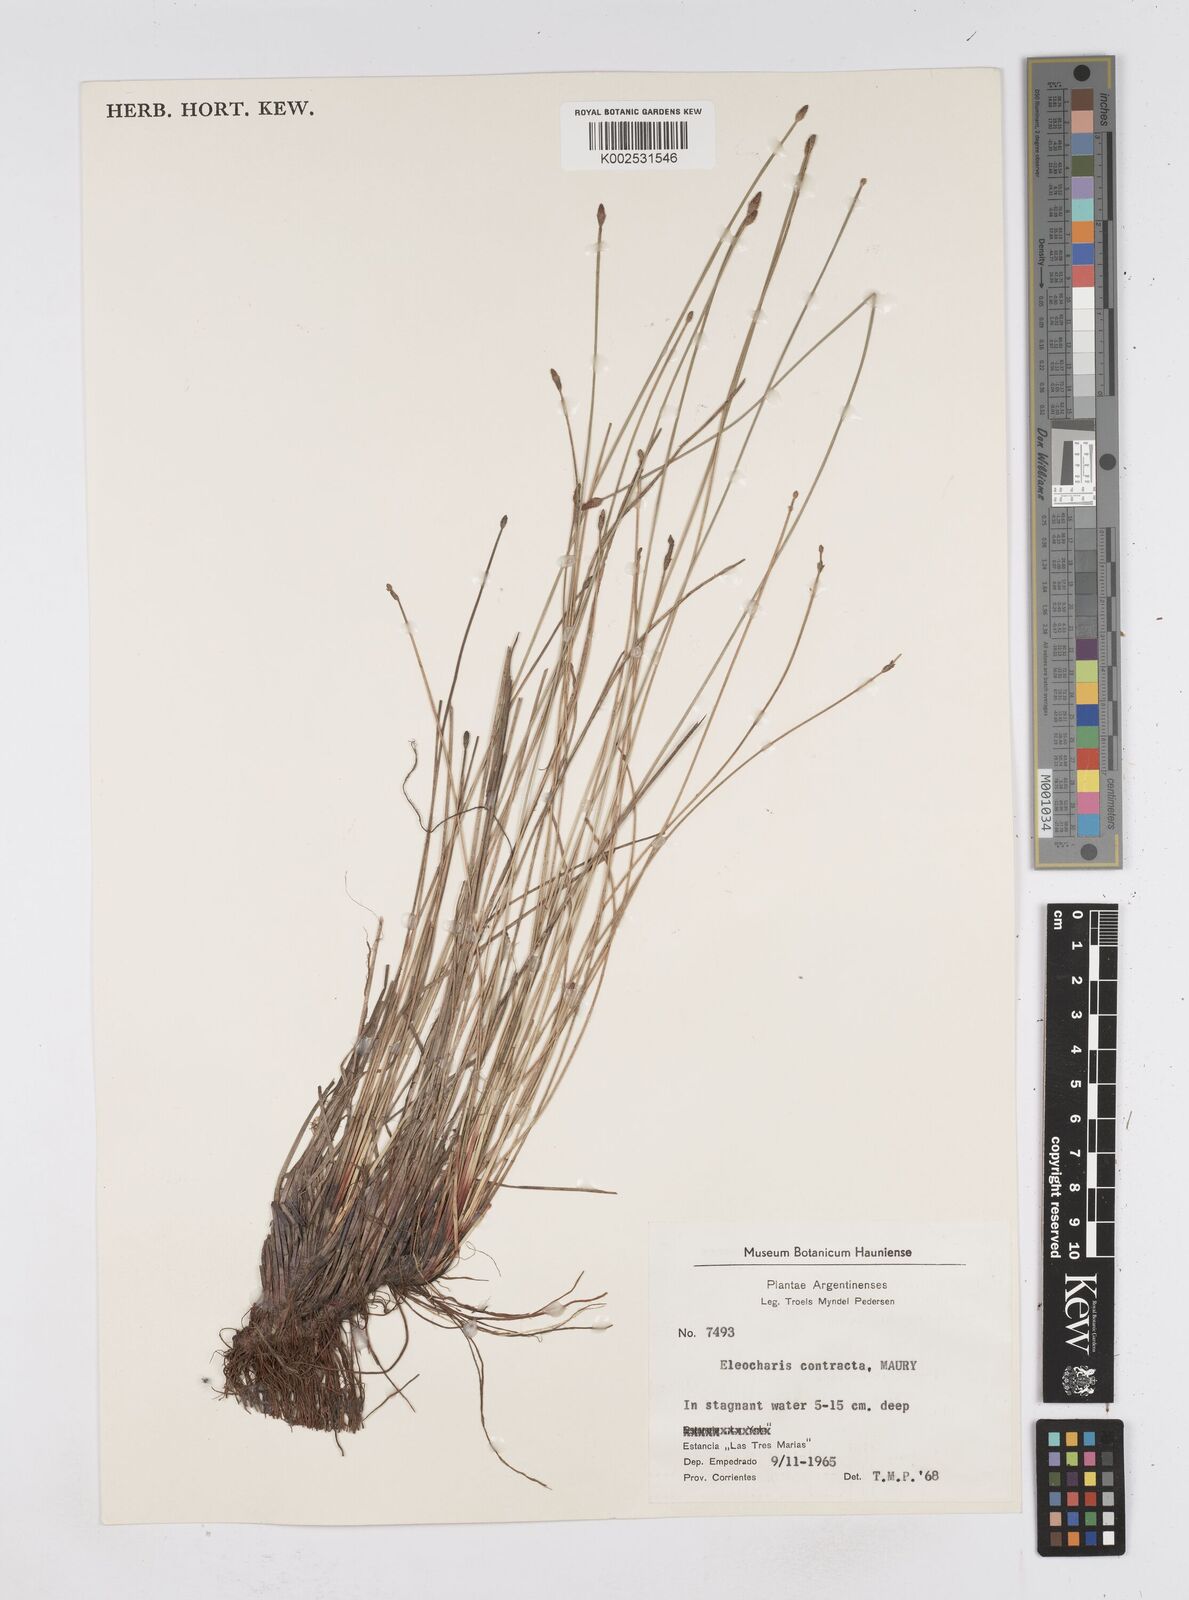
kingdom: Plantae
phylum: Tracheophyta
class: Liliopsida
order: Poales
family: Cyperaceae
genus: Eleocharis
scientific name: Eleocharis montana
